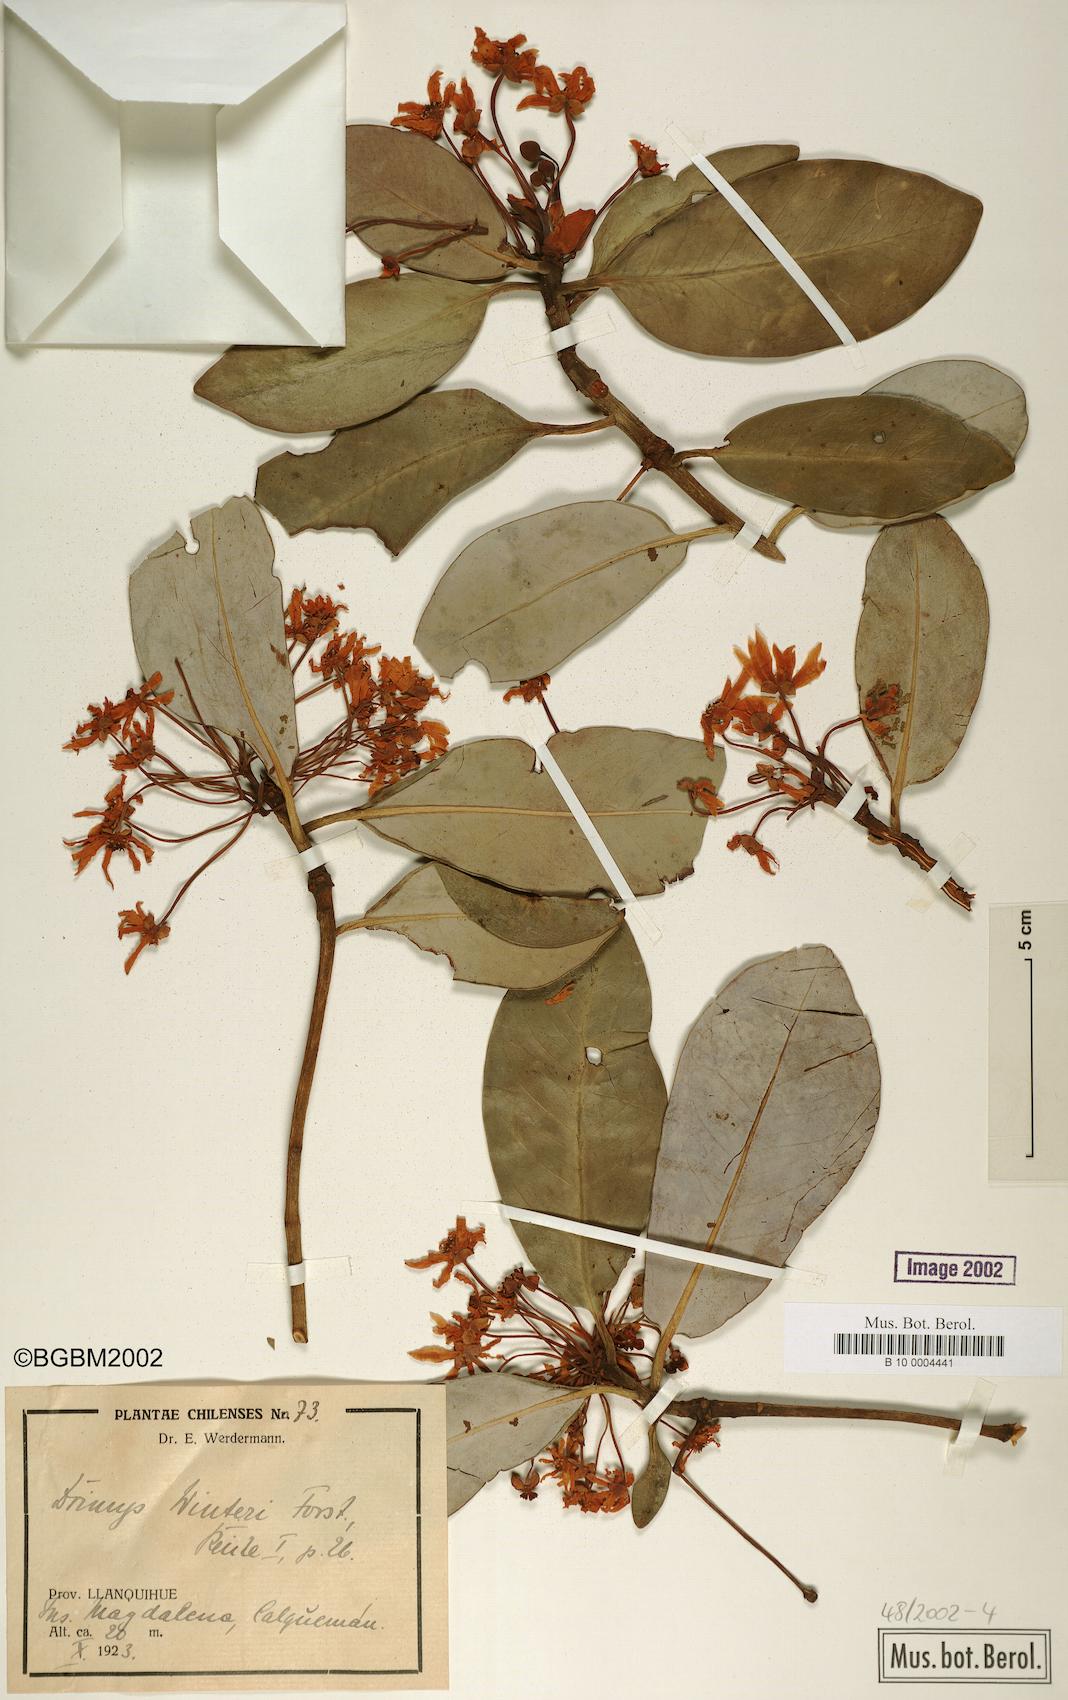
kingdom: Plantae
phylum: Tracheophyta
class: Magnoliopsida
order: Canellales
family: Winteraceae
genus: Drimys
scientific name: Drimys winteri
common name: Winter's-bark
